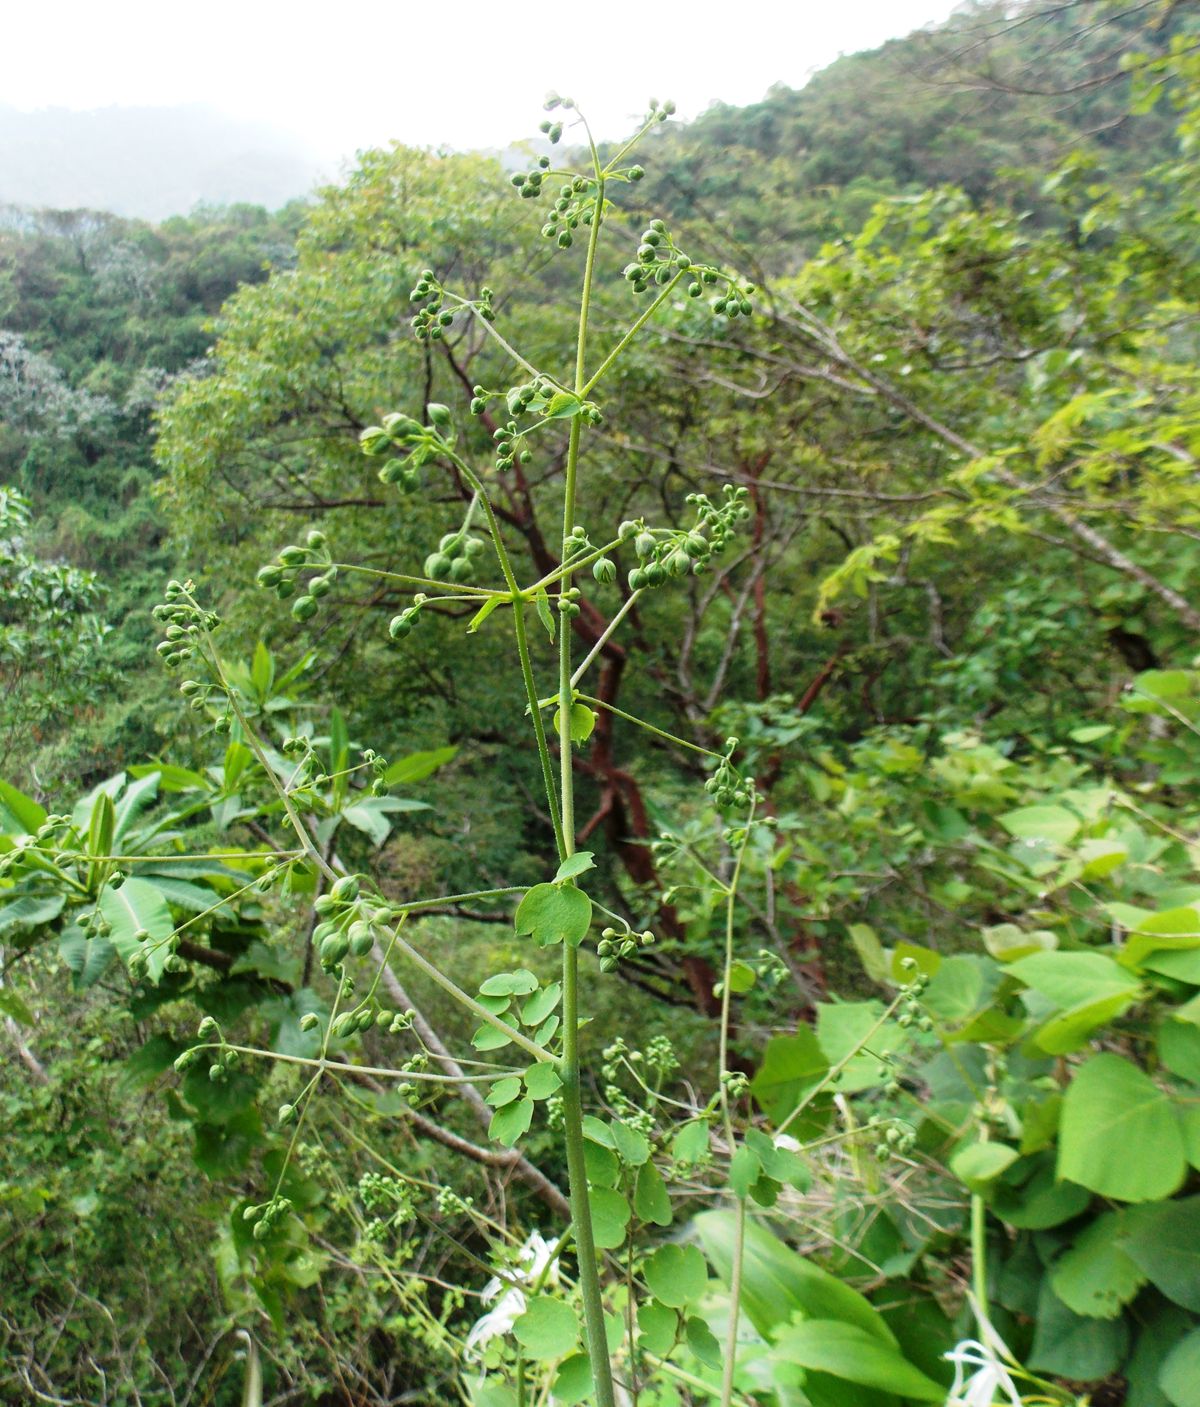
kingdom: Plantae
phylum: Tracheophyta
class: Magnoliopsida
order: Ranunculales
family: Ranunculaceae
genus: Thalictrum
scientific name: Thalictrum guatemalense
